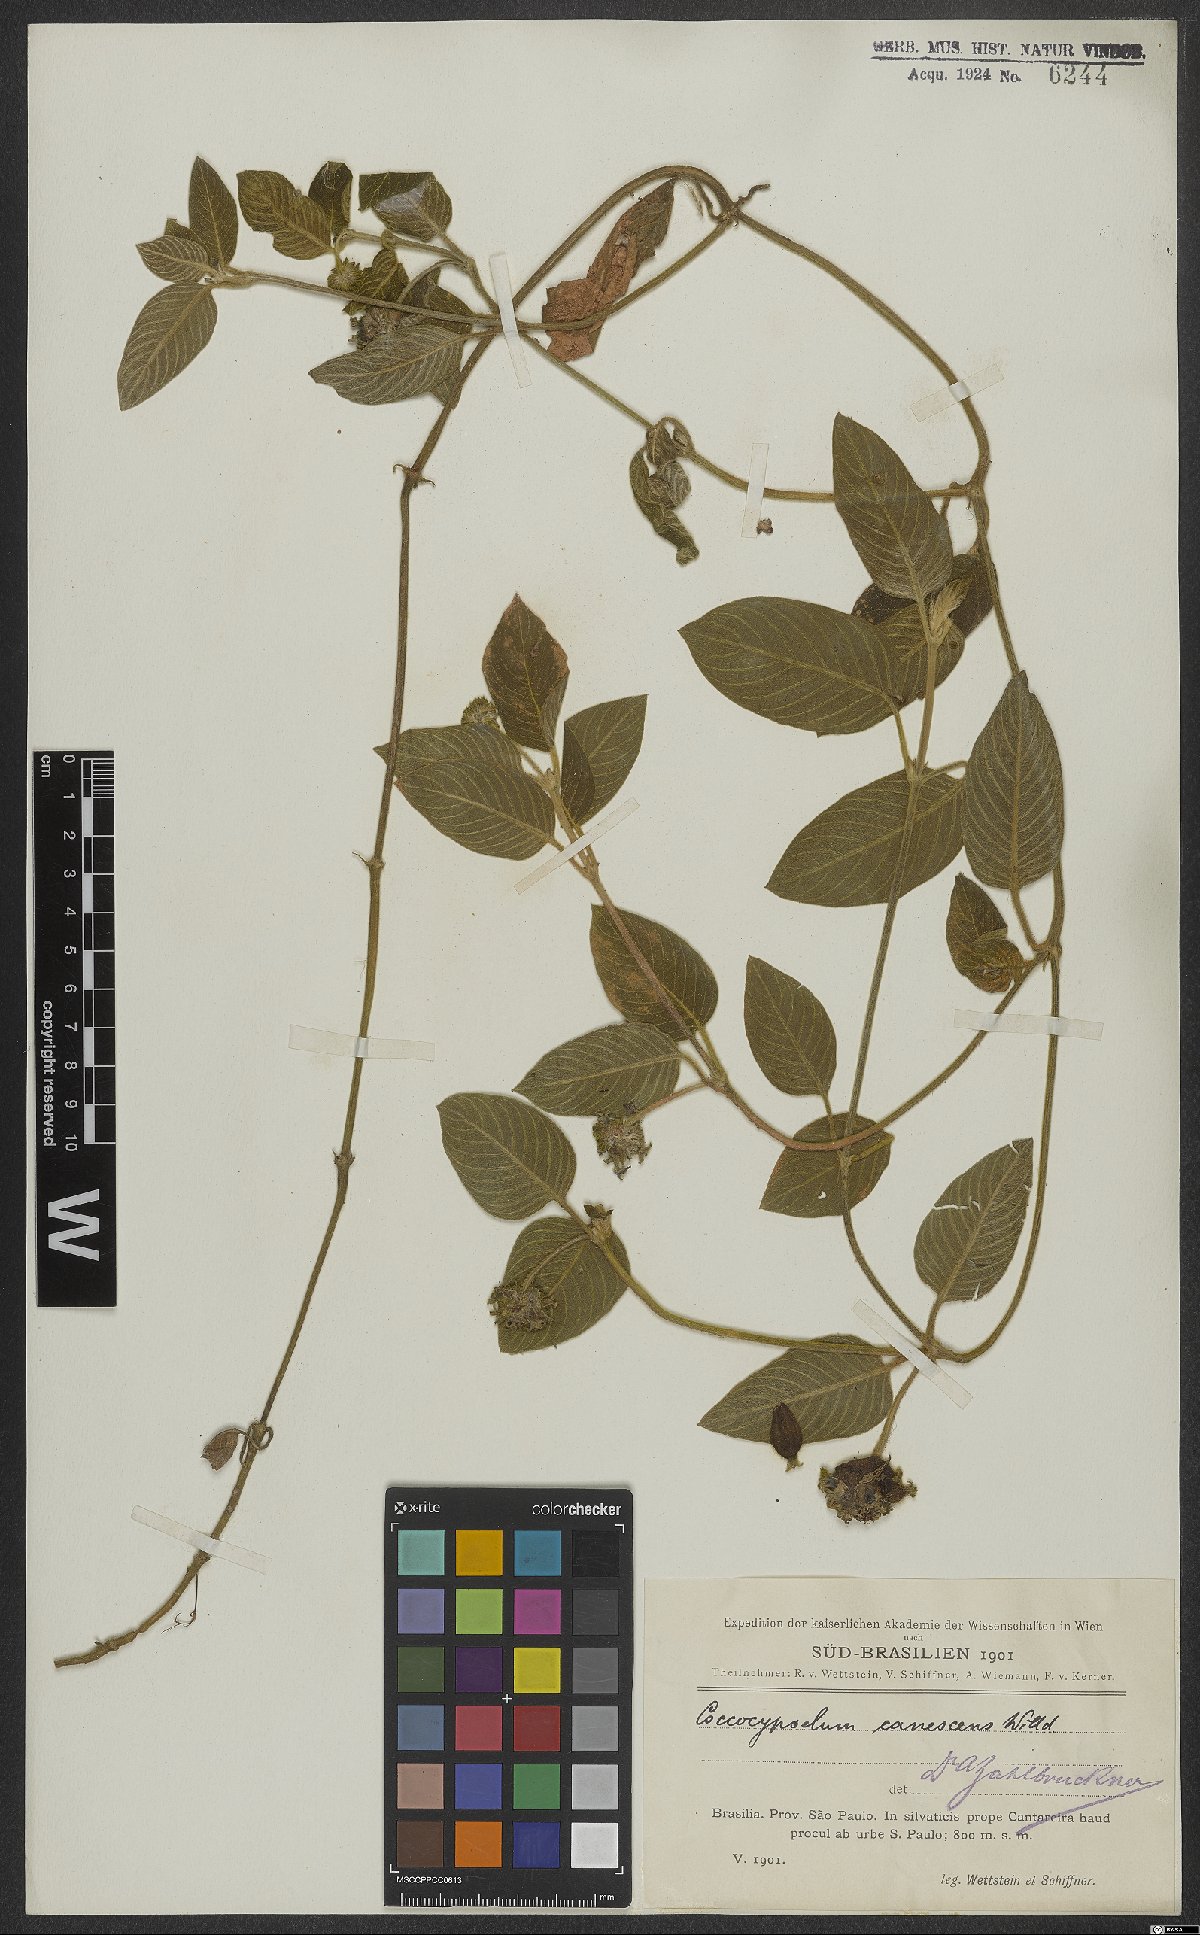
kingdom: Plantae
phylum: Tracheophyta
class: Magnoliopsida
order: Gentianales
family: Rubiaceae
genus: Coccocypselum
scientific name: Coccocypselum lanceolatum
